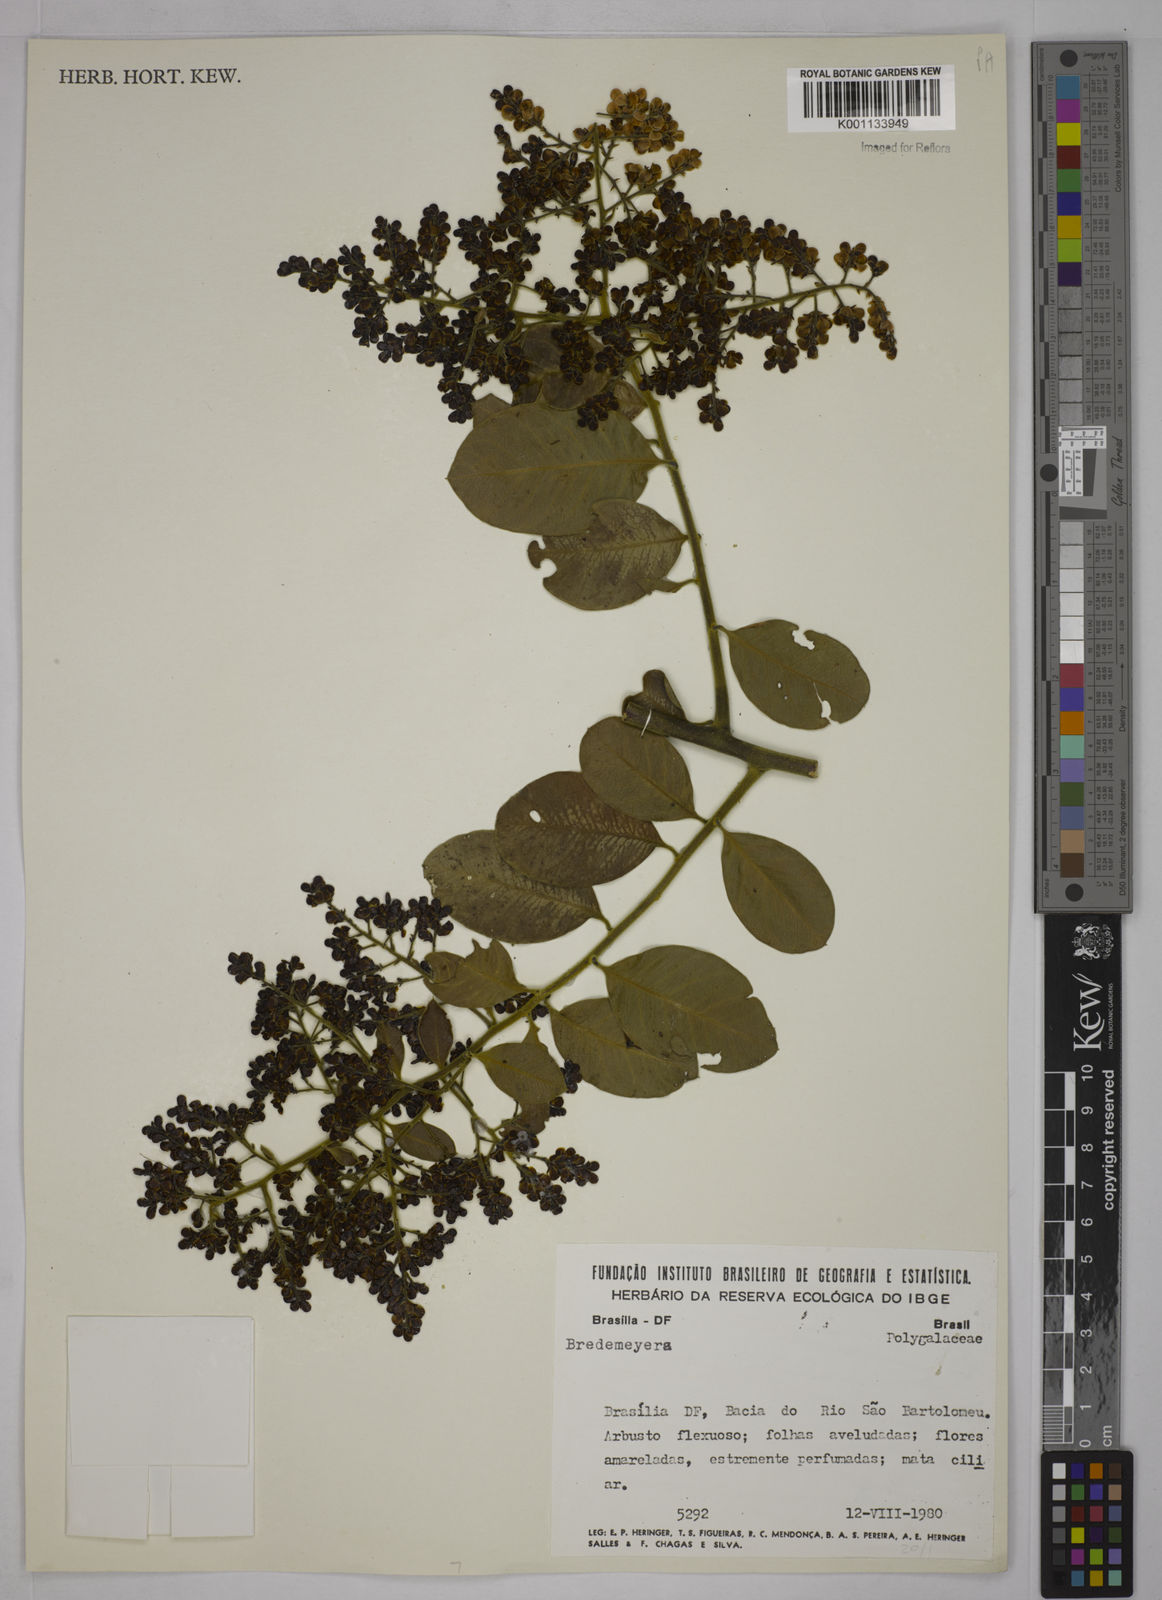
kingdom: Plantae
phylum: Tracheophyta
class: Magnoliopsida
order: Fabales
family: Polygalaceae
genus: Bredemeyera
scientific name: Bredemeyera
